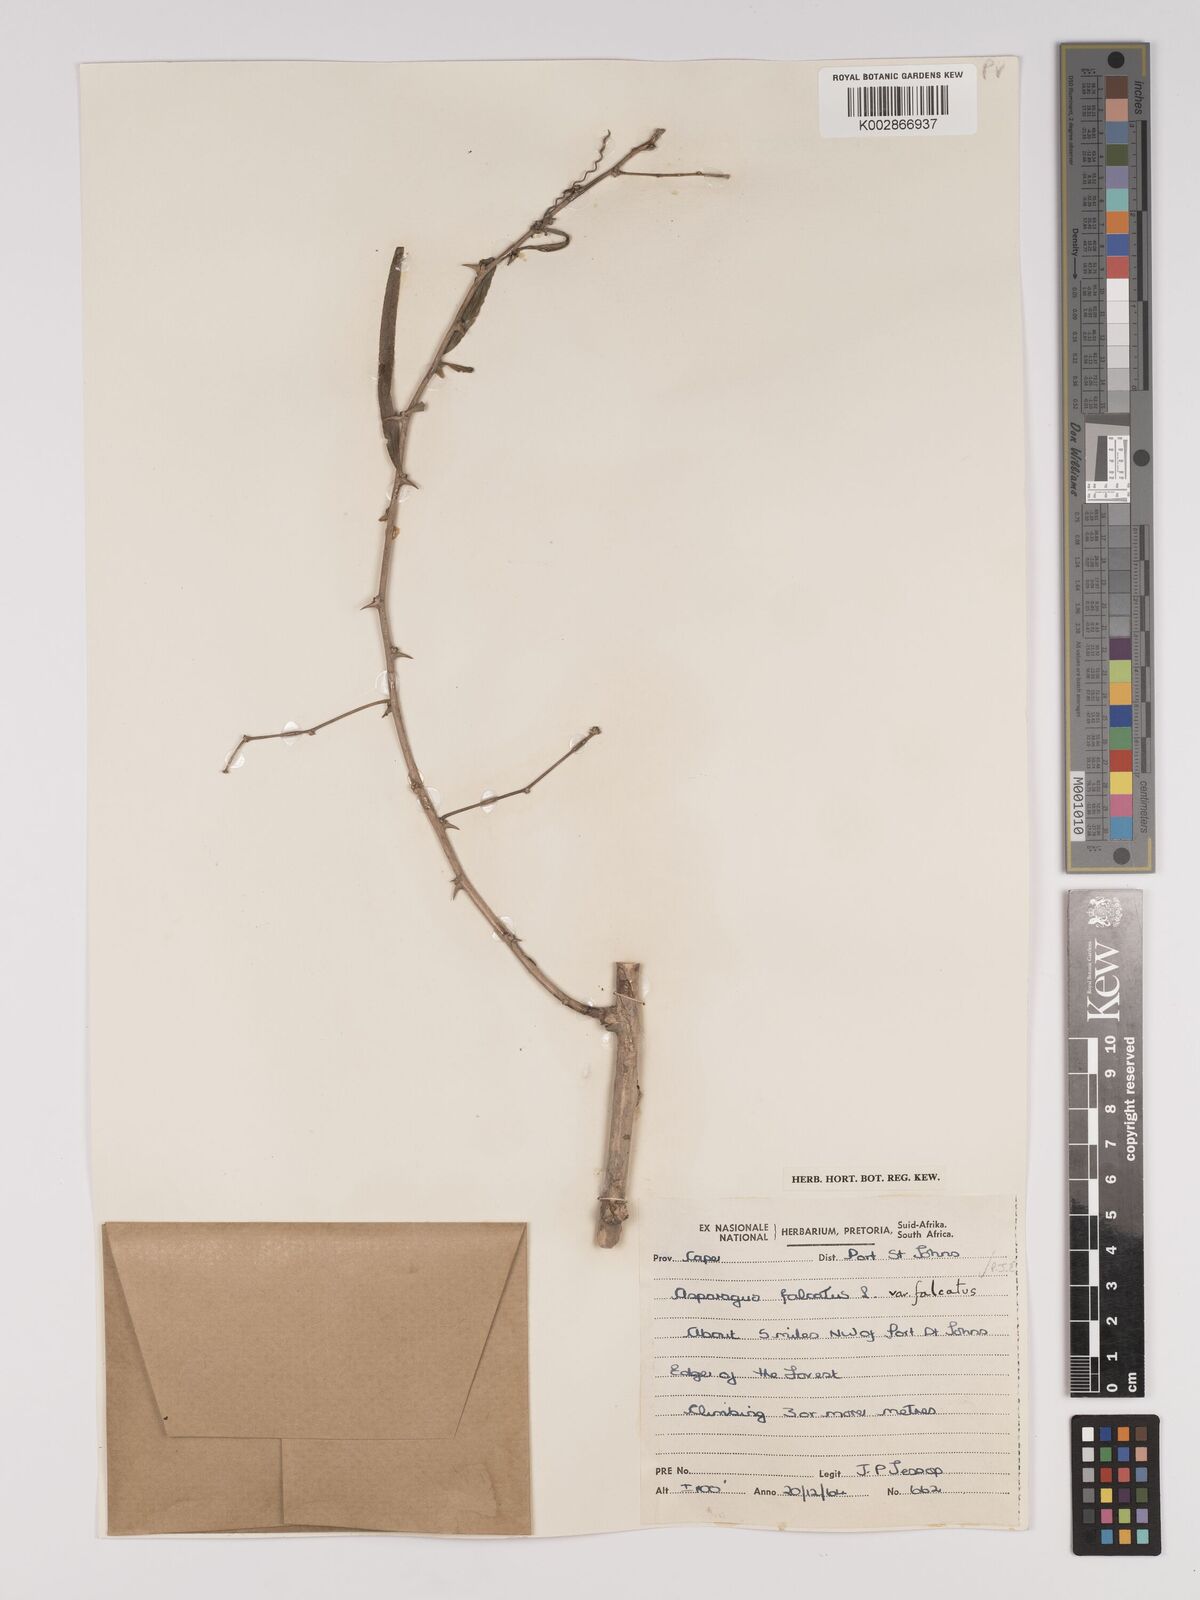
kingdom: Plantae
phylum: Tracheophyta
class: Liliopsida
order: Asparagales
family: Asparagaceae
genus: Asparagus
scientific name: Asparagus falcatus
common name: Asparagus
